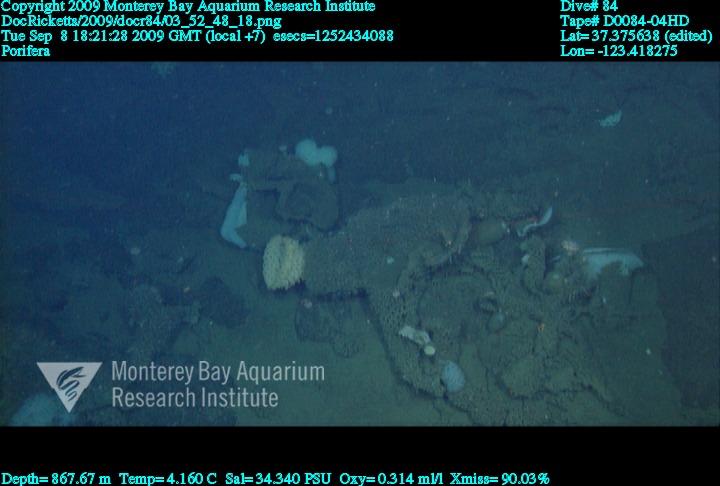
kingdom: Animalia
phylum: Porifera
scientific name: Porifera
